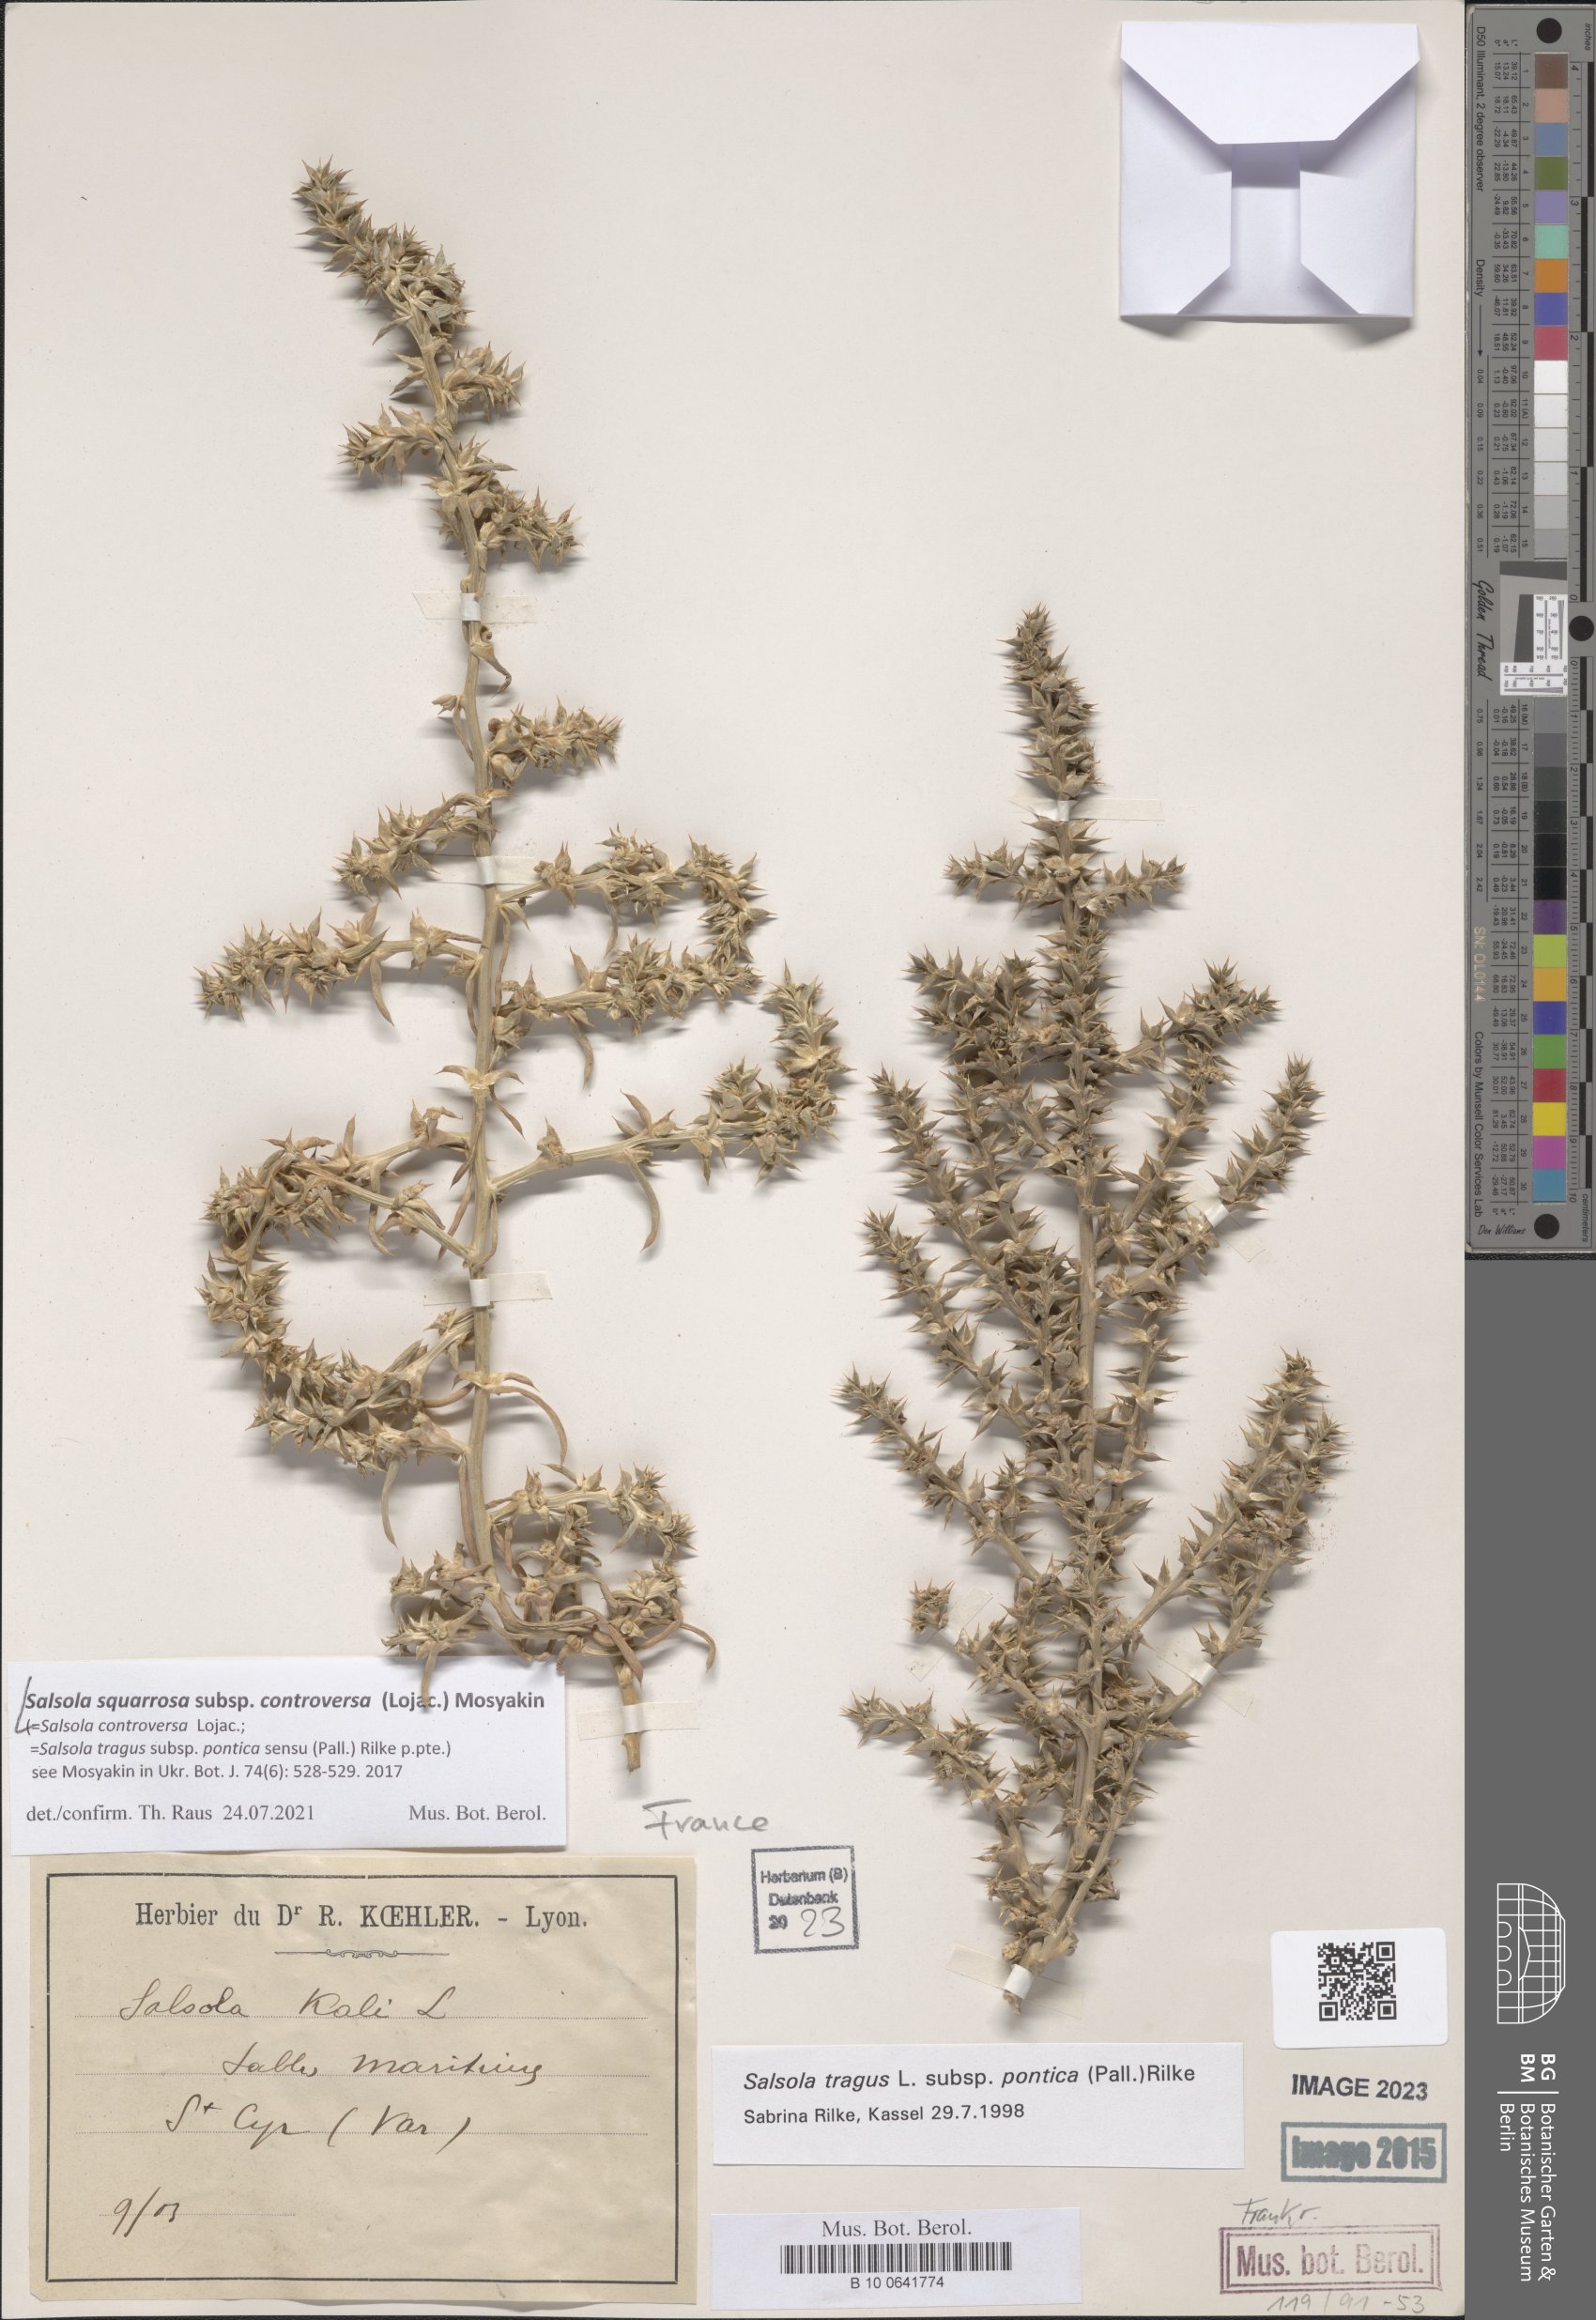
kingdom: Plantae
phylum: Tracheophyta
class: Magnoliopsida
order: Caryophyllales
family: Amaranthaceae
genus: Salsola
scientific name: Salsola squarrosa
